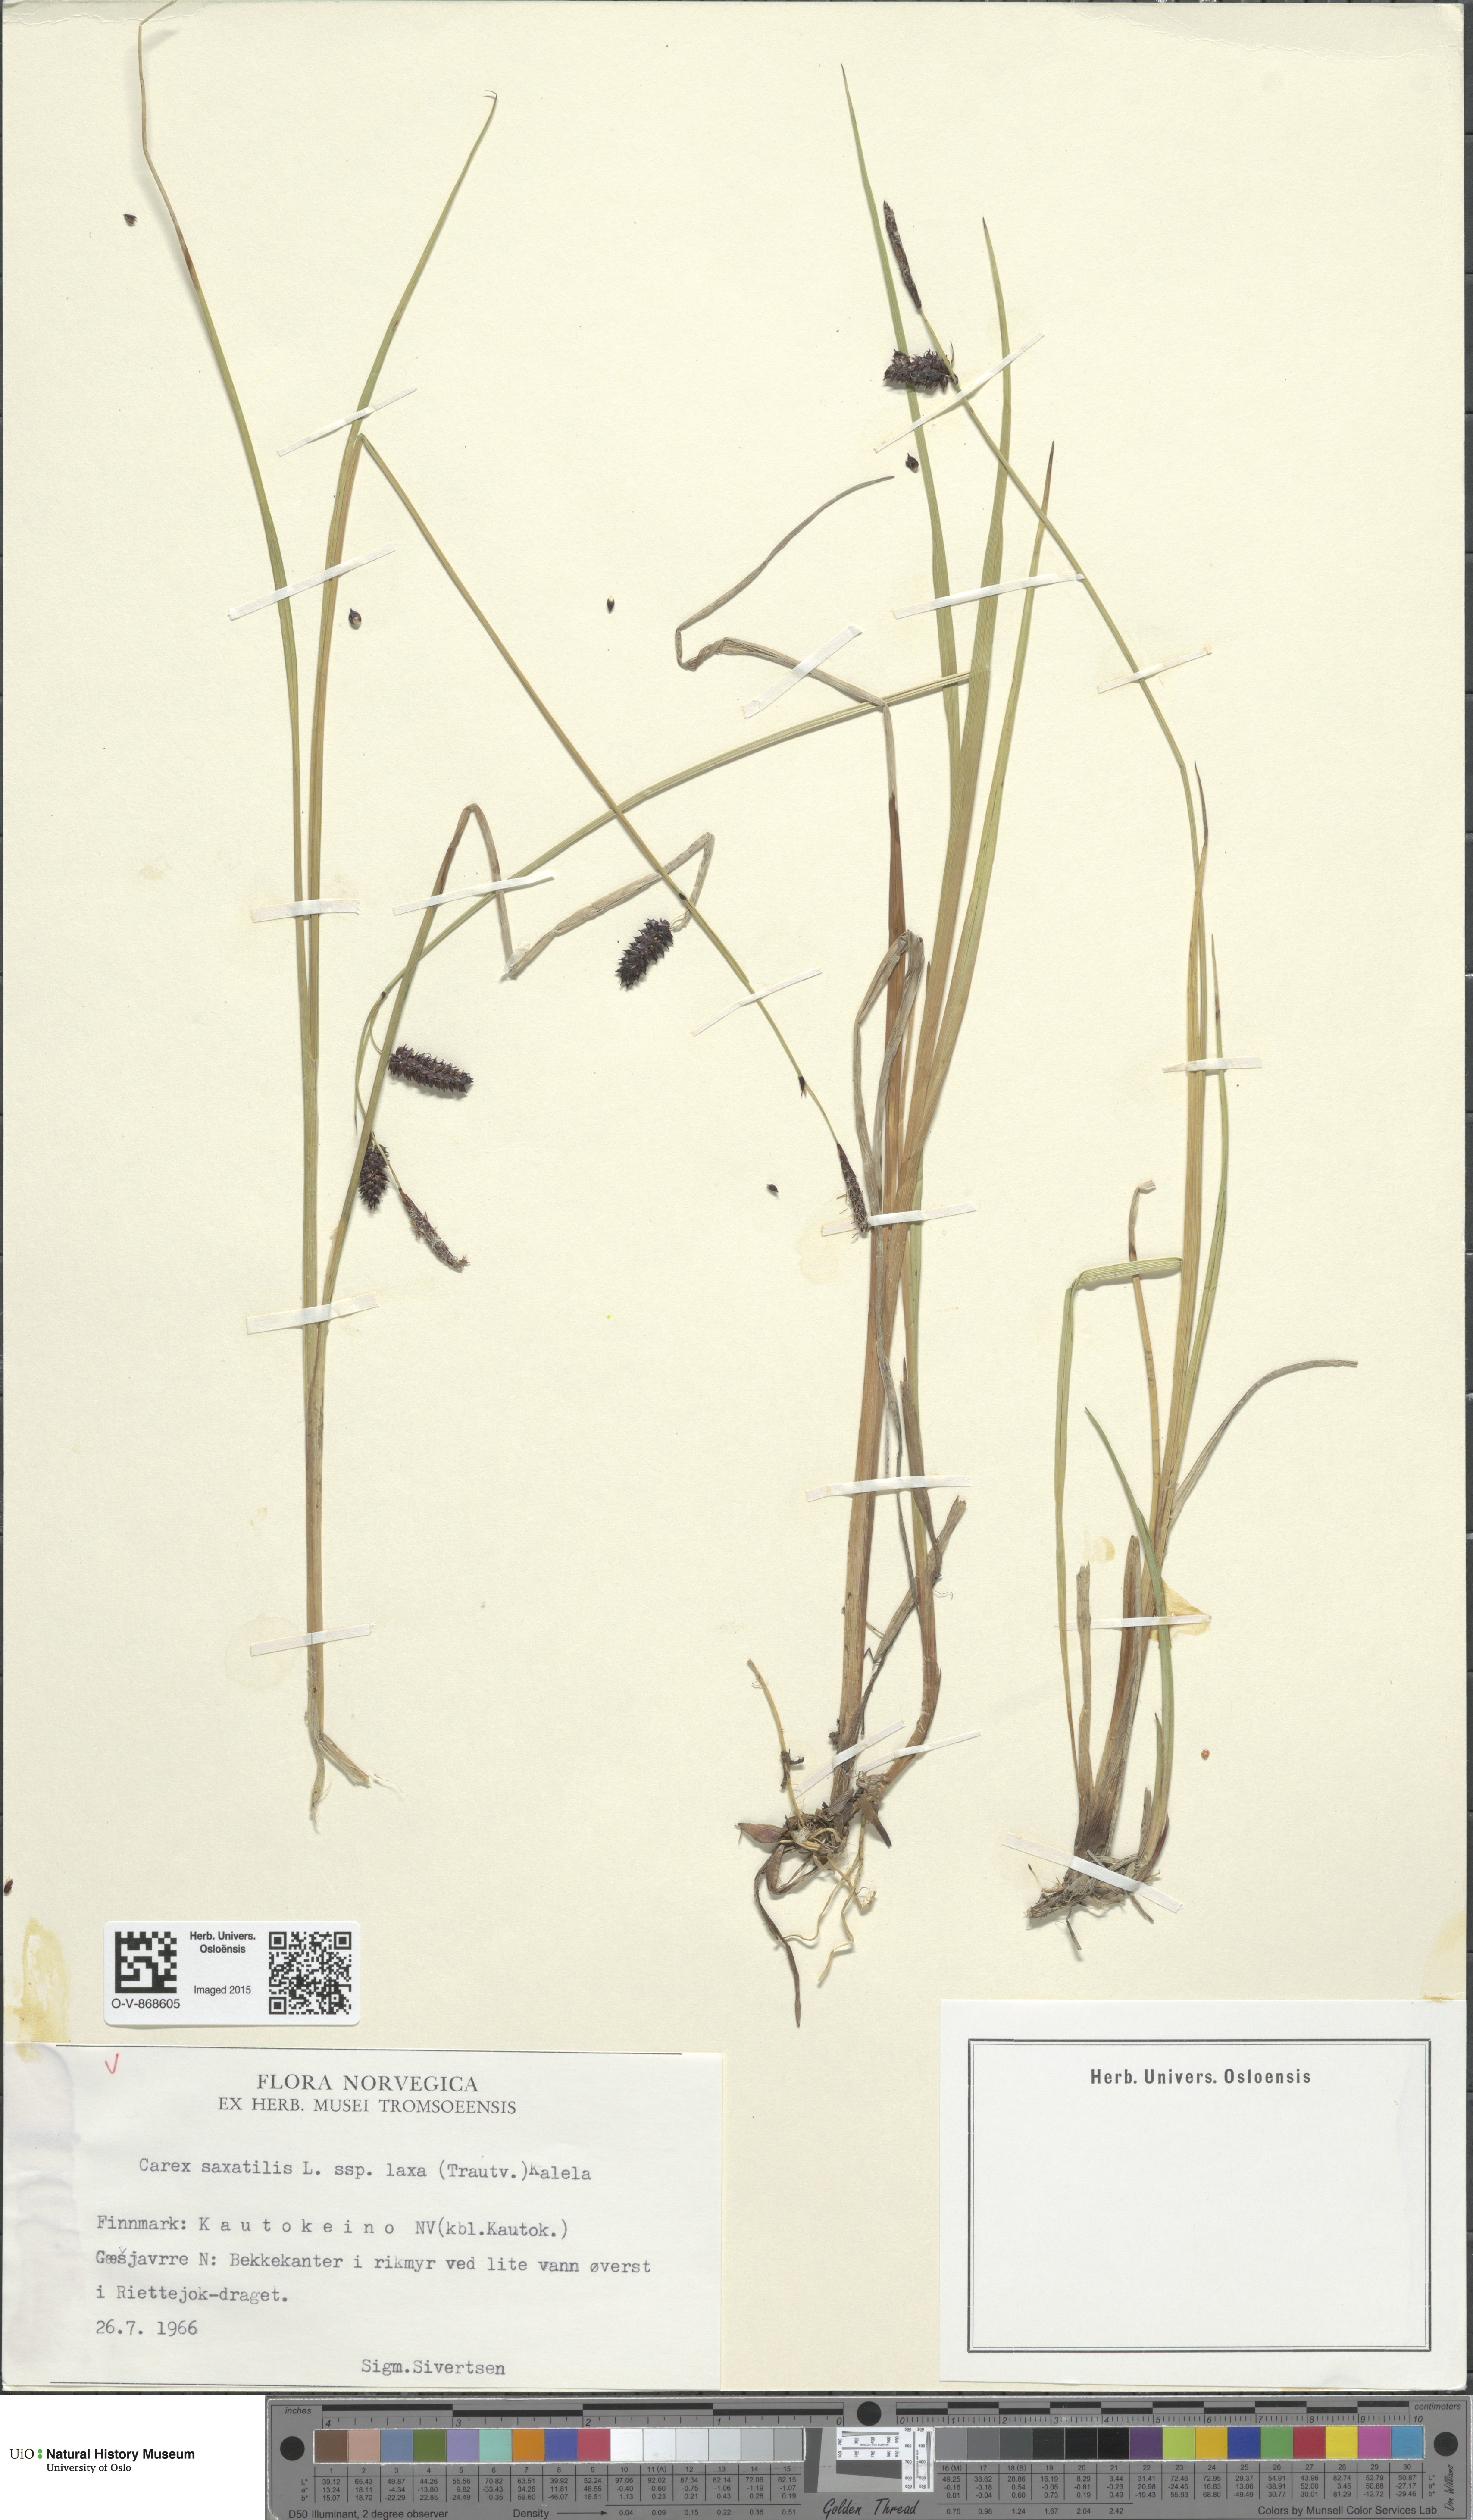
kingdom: Plantae
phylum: Tracheophyta
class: Liliopsida
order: Poales
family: Cyperaceae
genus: Carex
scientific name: Carex saxatilis
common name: Russet sedge
